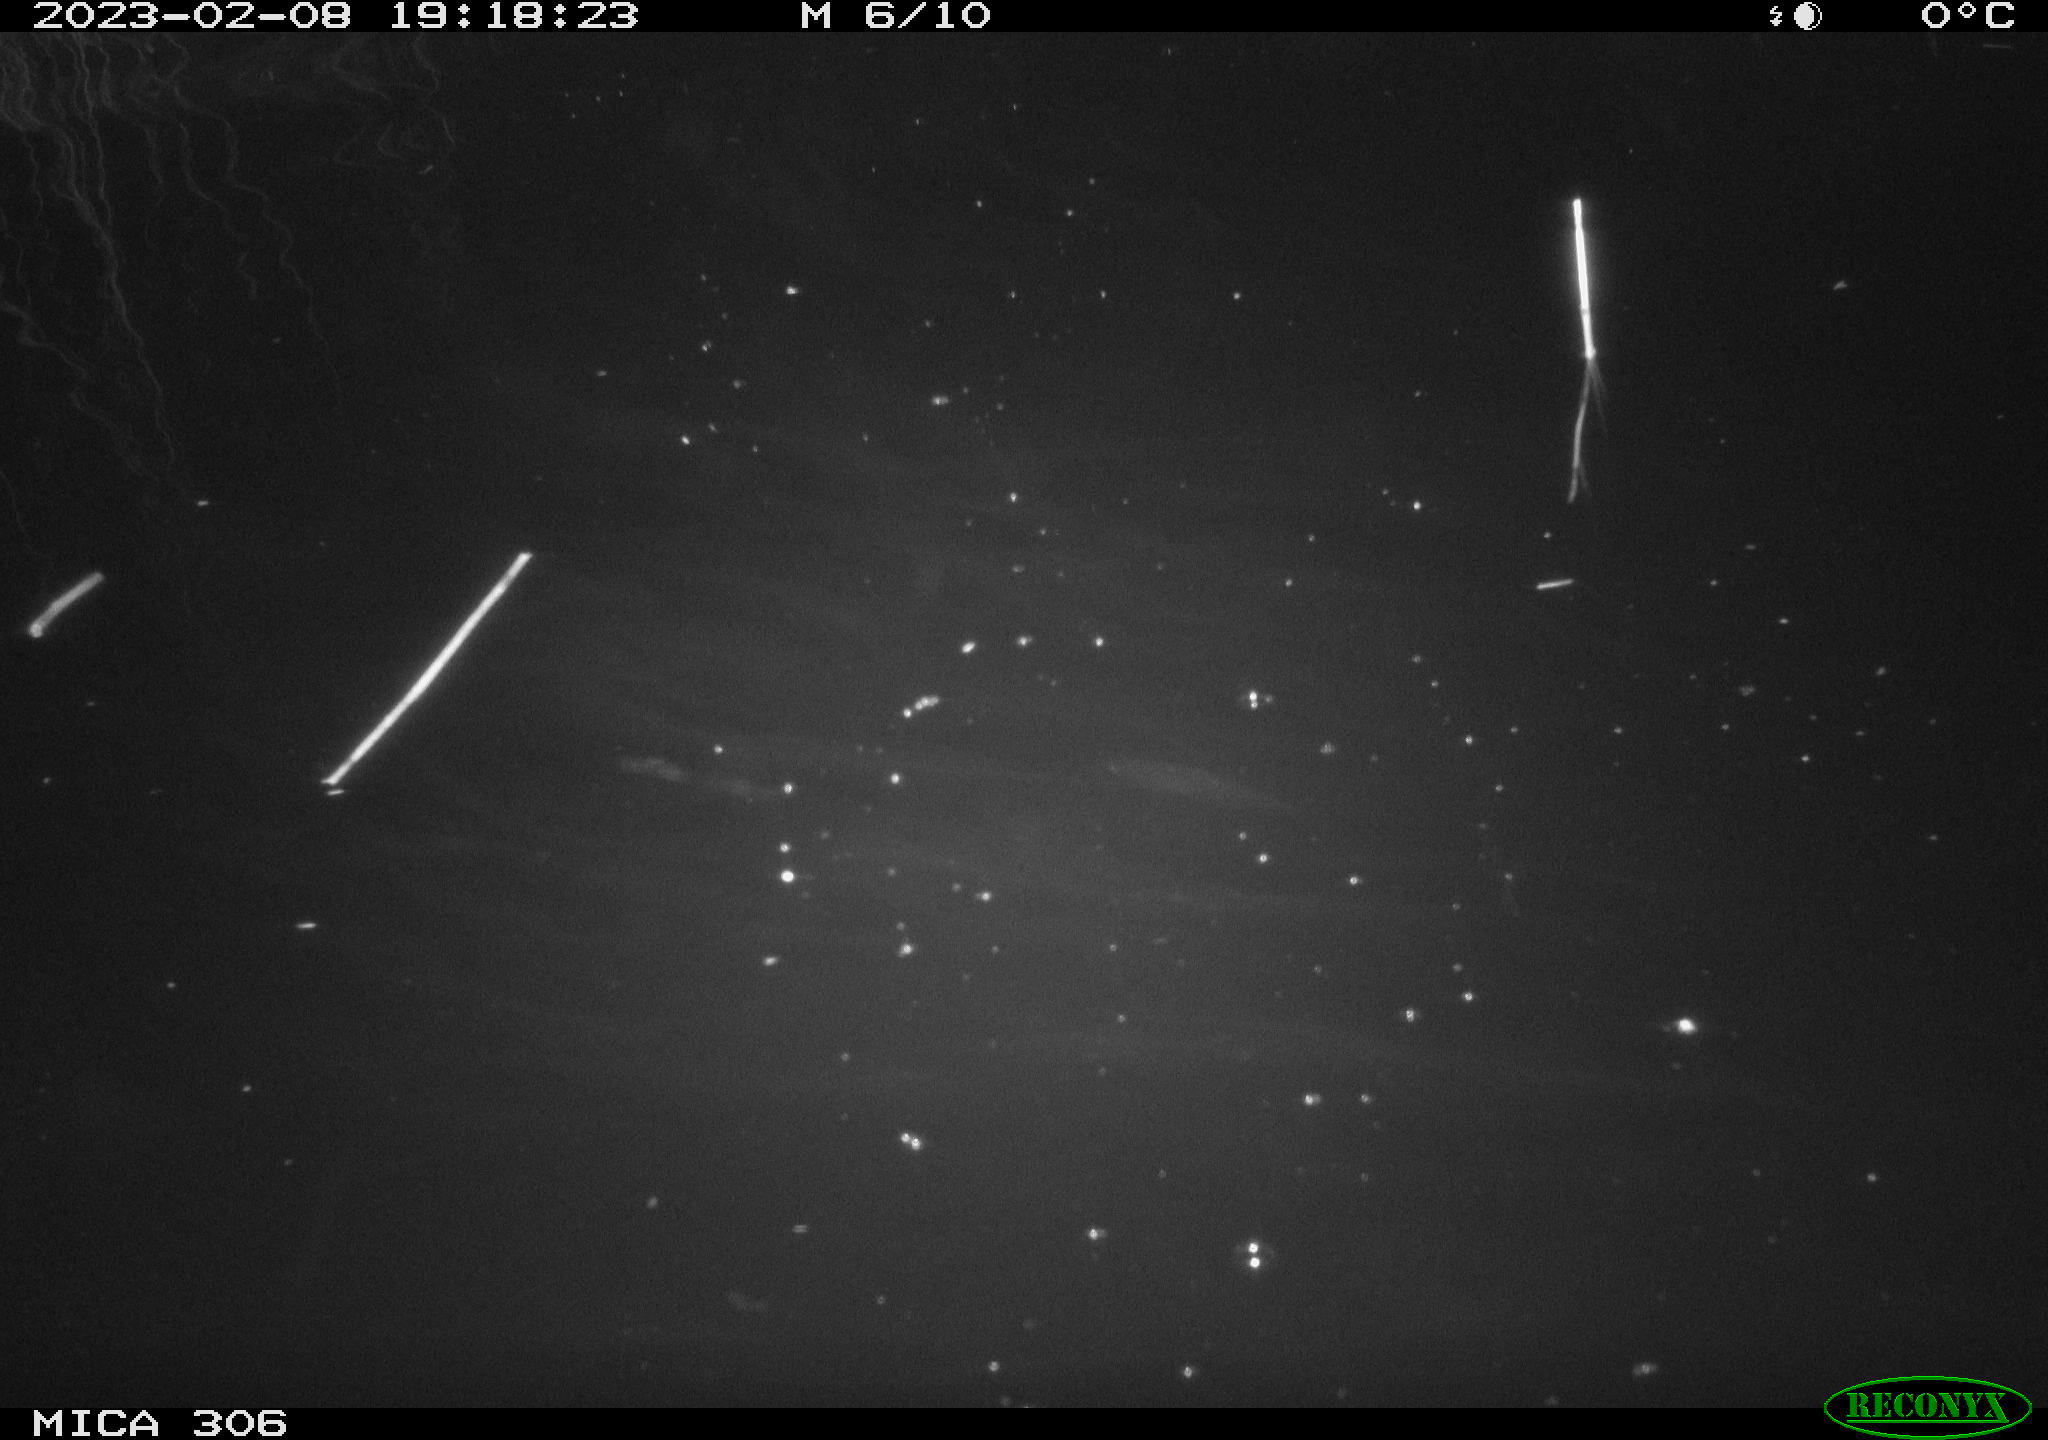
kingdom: Animalia
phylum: Chordata
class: Mammalia
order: Rodentia
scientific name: Rodentia
